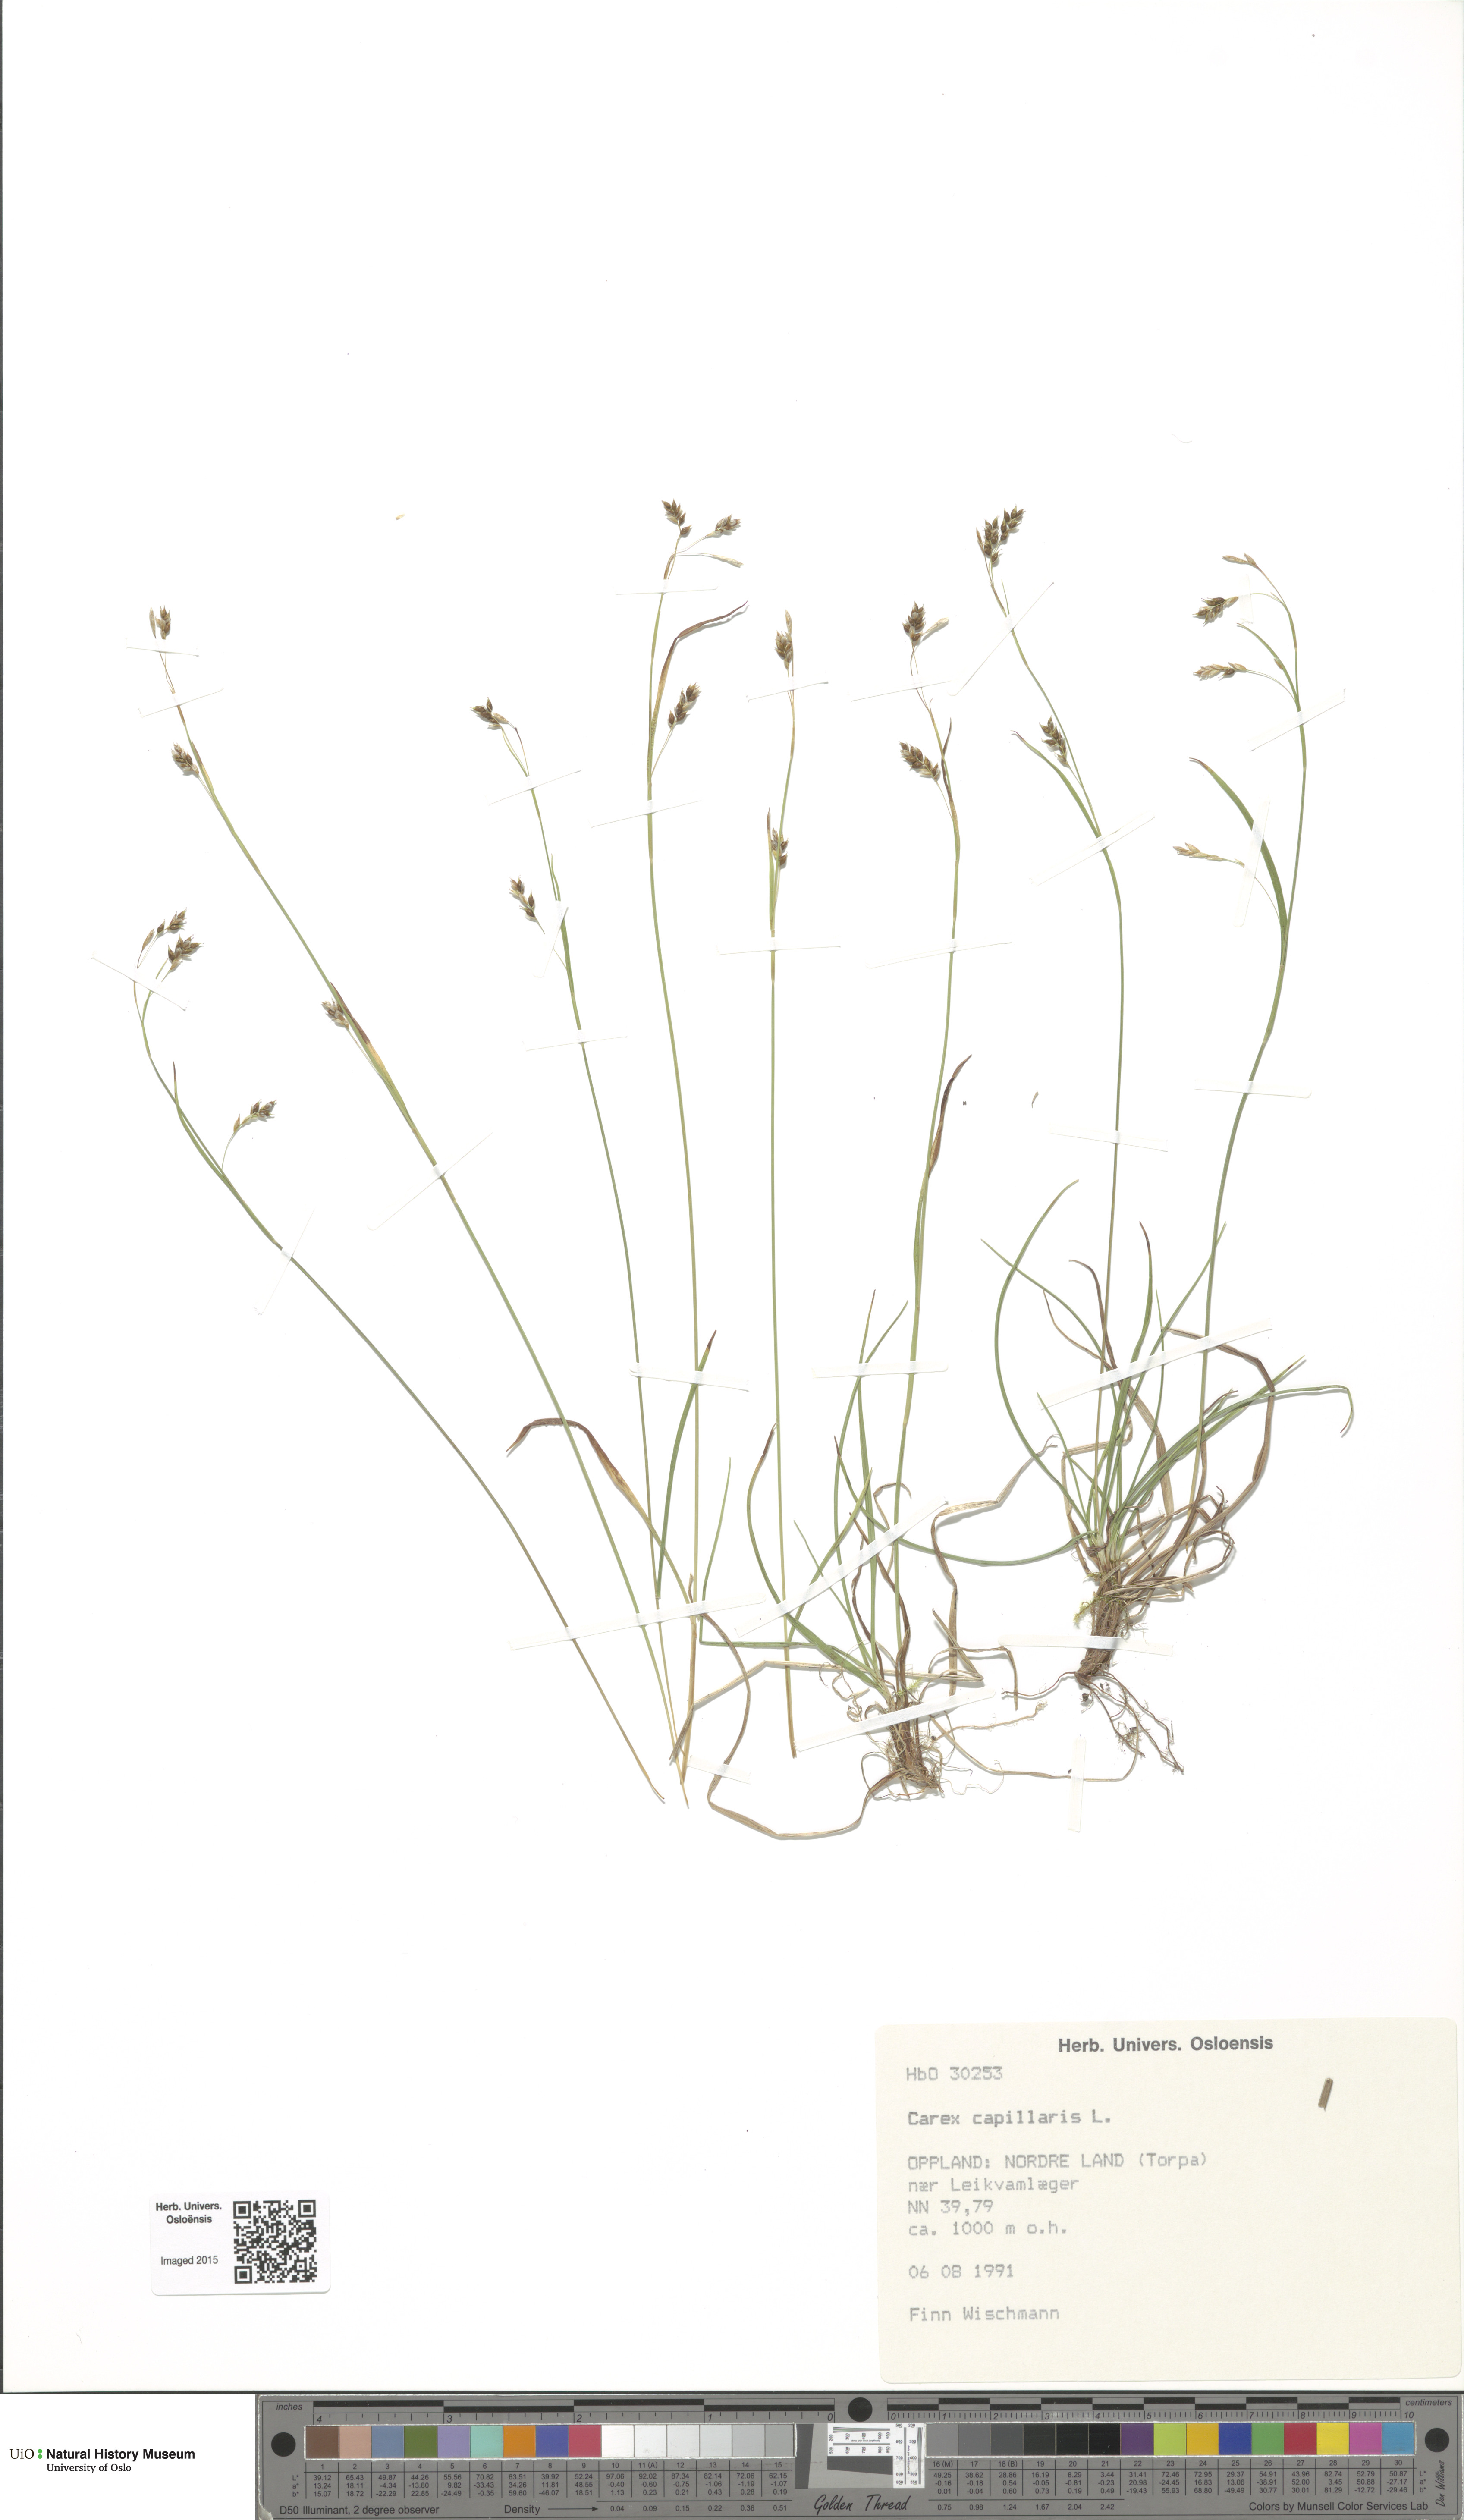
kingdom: Plantae
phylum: Tracheophyta
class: Liliopsida
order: Poales
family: Cyperaceae
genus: Carex
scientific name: Carex capillaris
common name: Hair sedge
